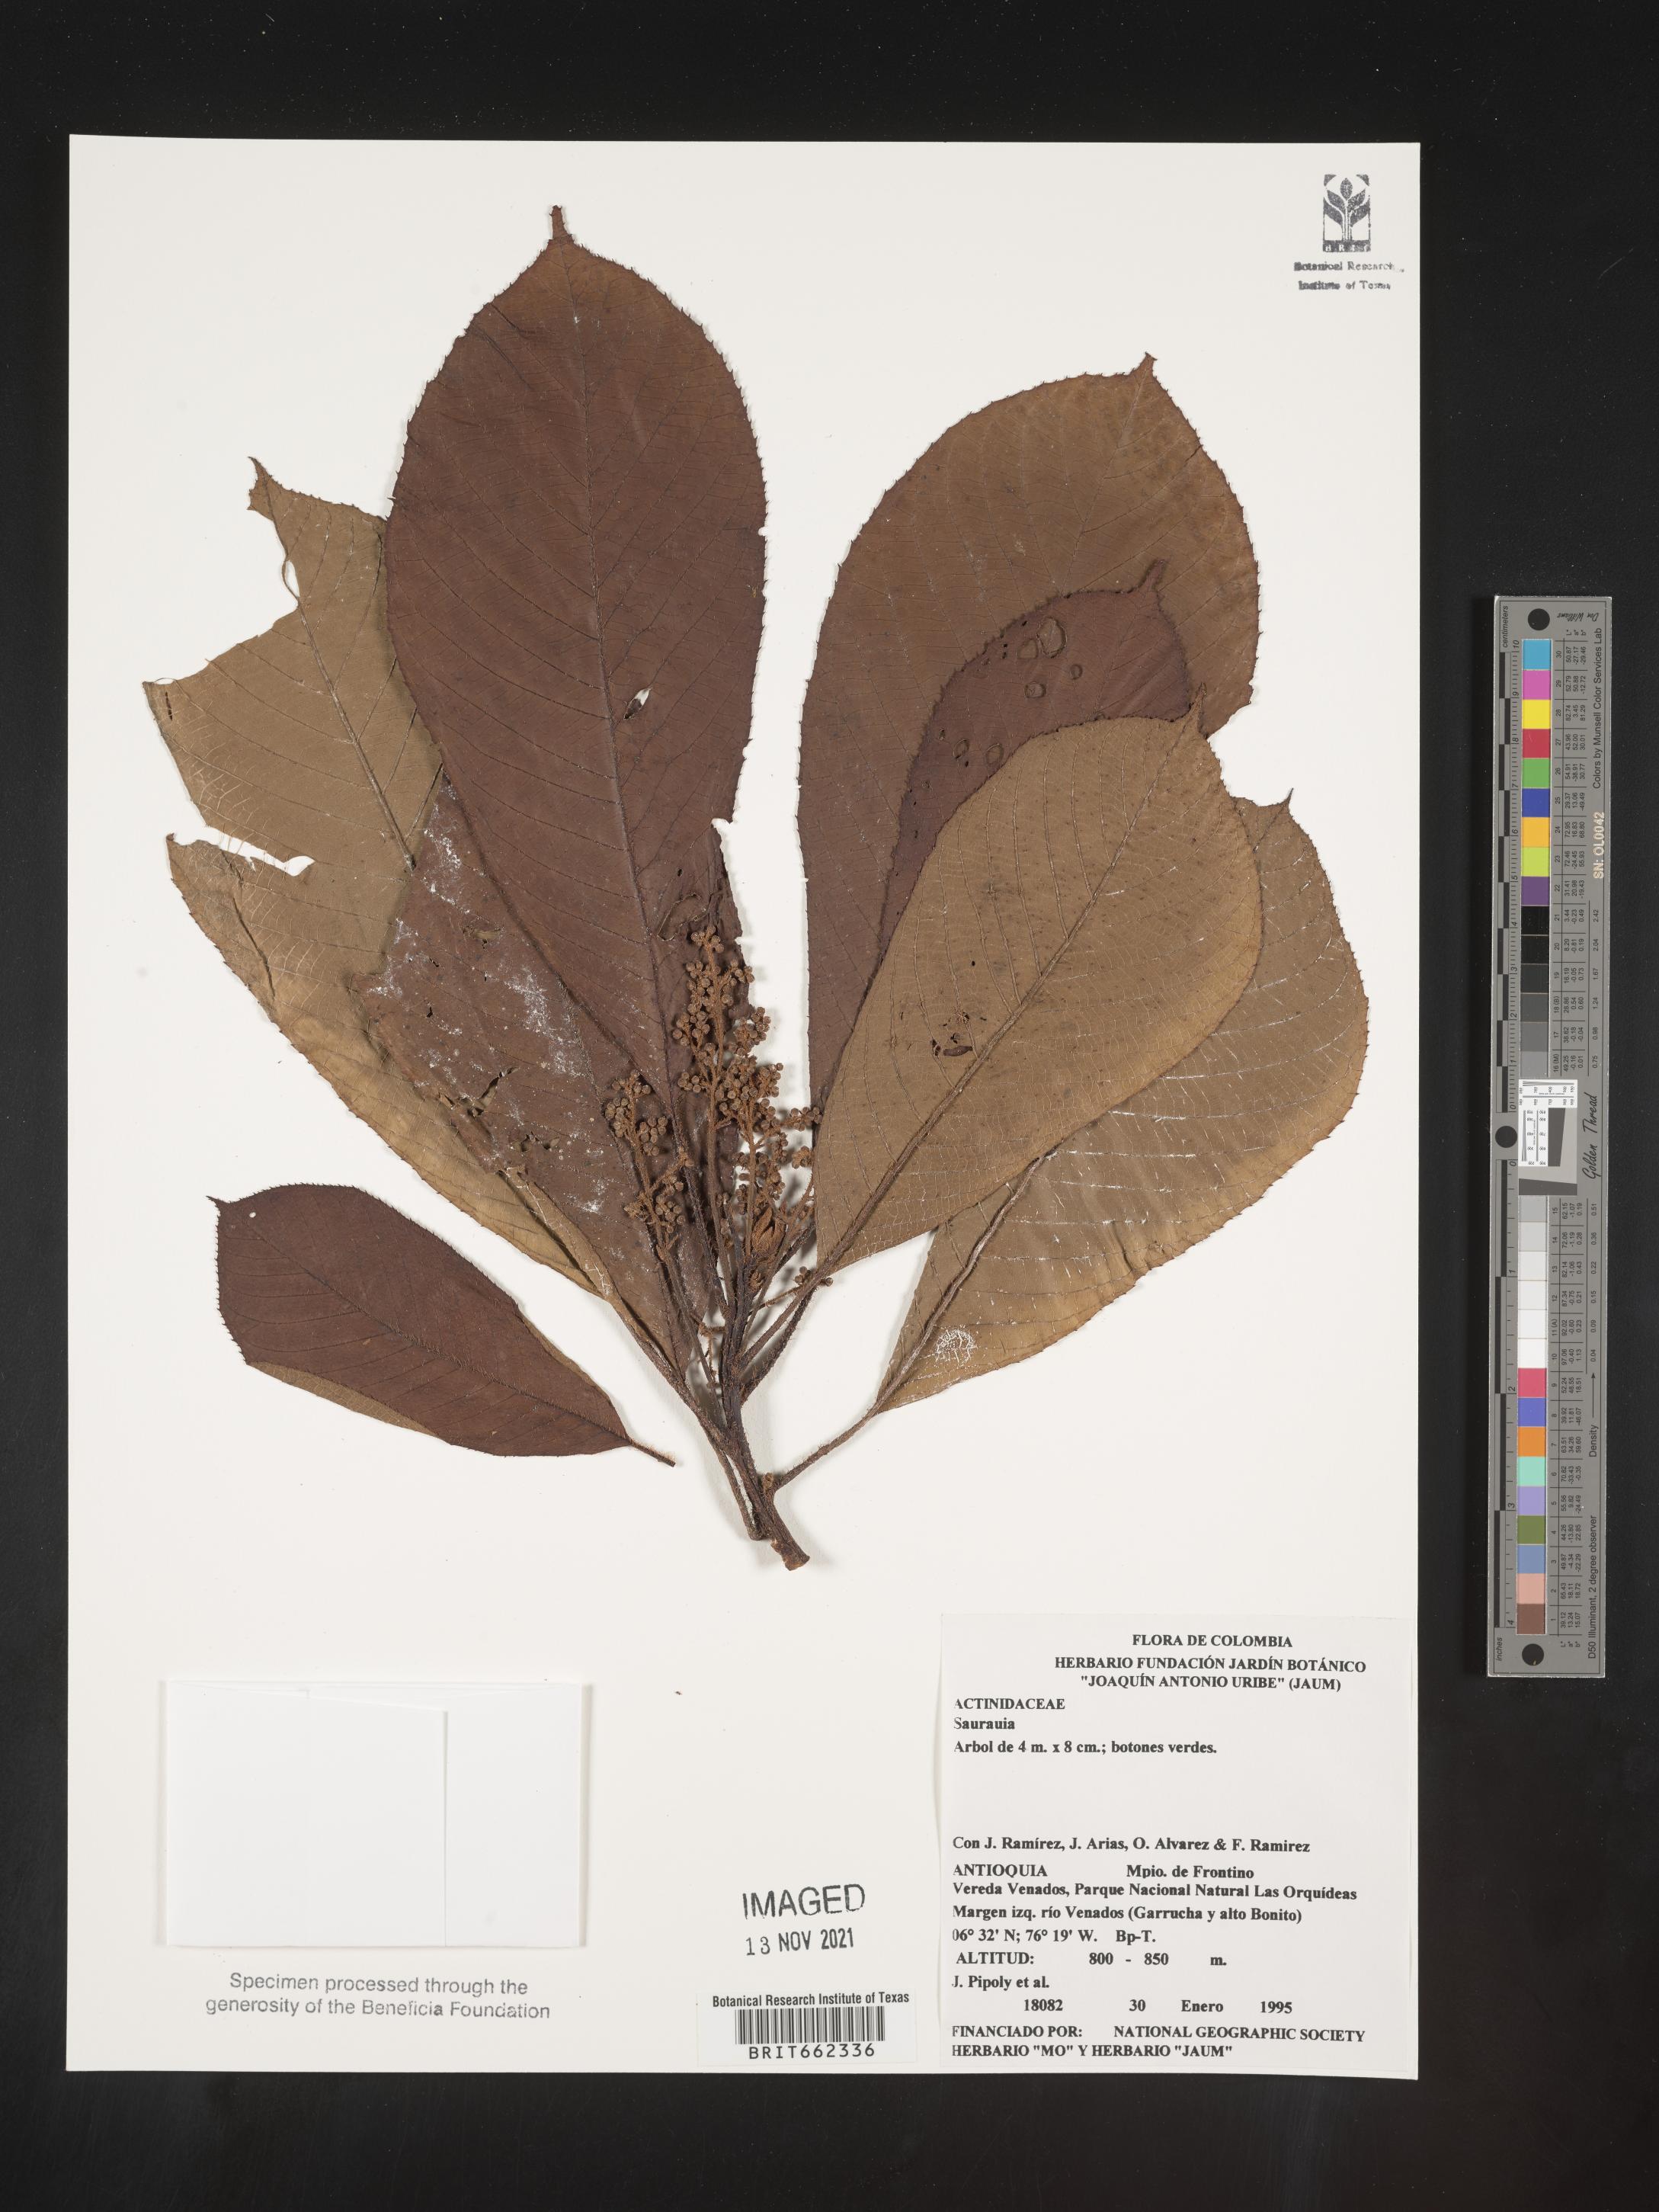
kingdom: Plantae
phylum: Tracheophyta
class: Magnoliopsida
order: Ericales
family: Actinidiaceae
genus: Saurauia
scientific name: Saurauia
